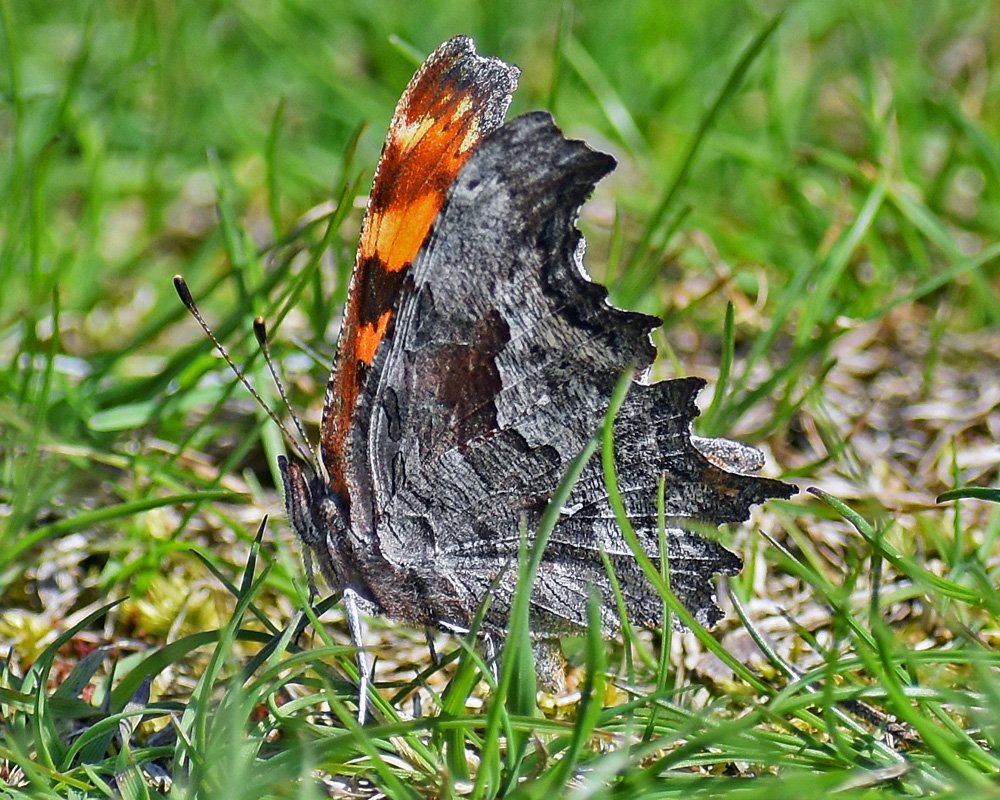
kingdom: Animalia
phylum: Arthropoda
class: Insecta
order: Lepidoptera
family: Nymphalidae
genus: Polygonia
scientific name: Polygonia gracilis
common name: Hoary Comma
